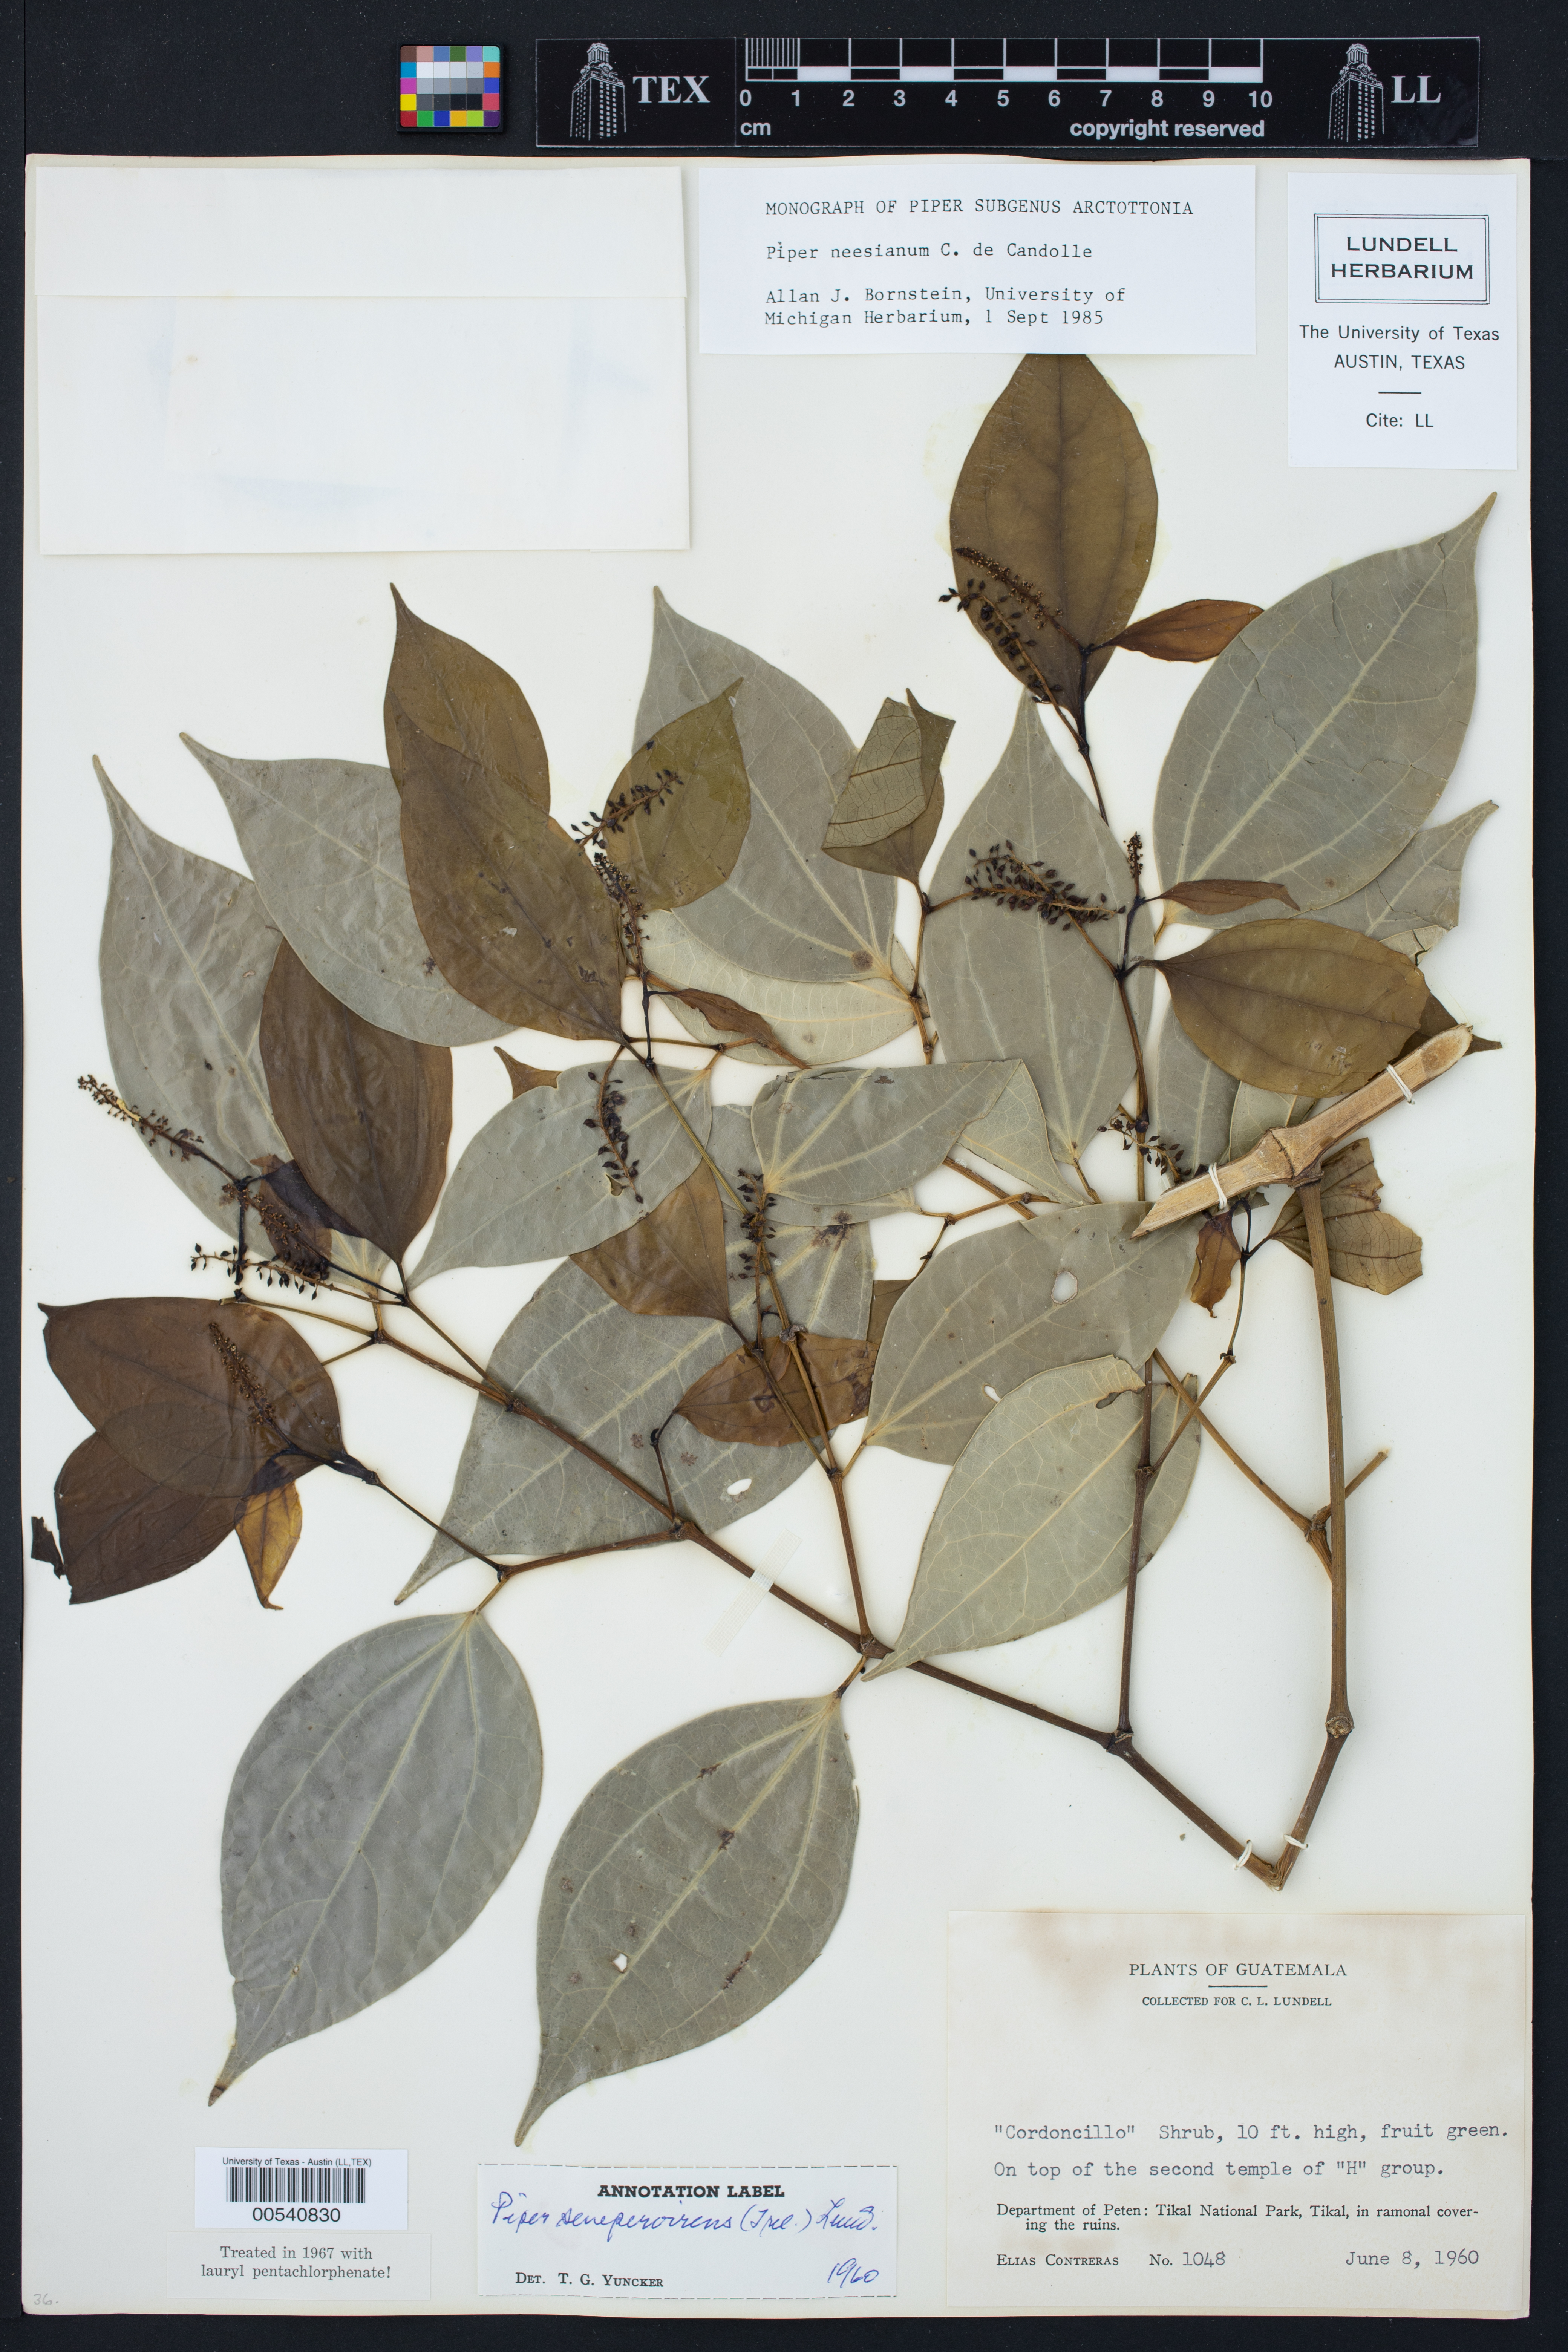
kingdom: Plantae
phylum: Tracheophyta
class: Magnoliopsida
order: Piperales
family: Piperaceae
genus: Piper
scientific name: Piper neesianum
